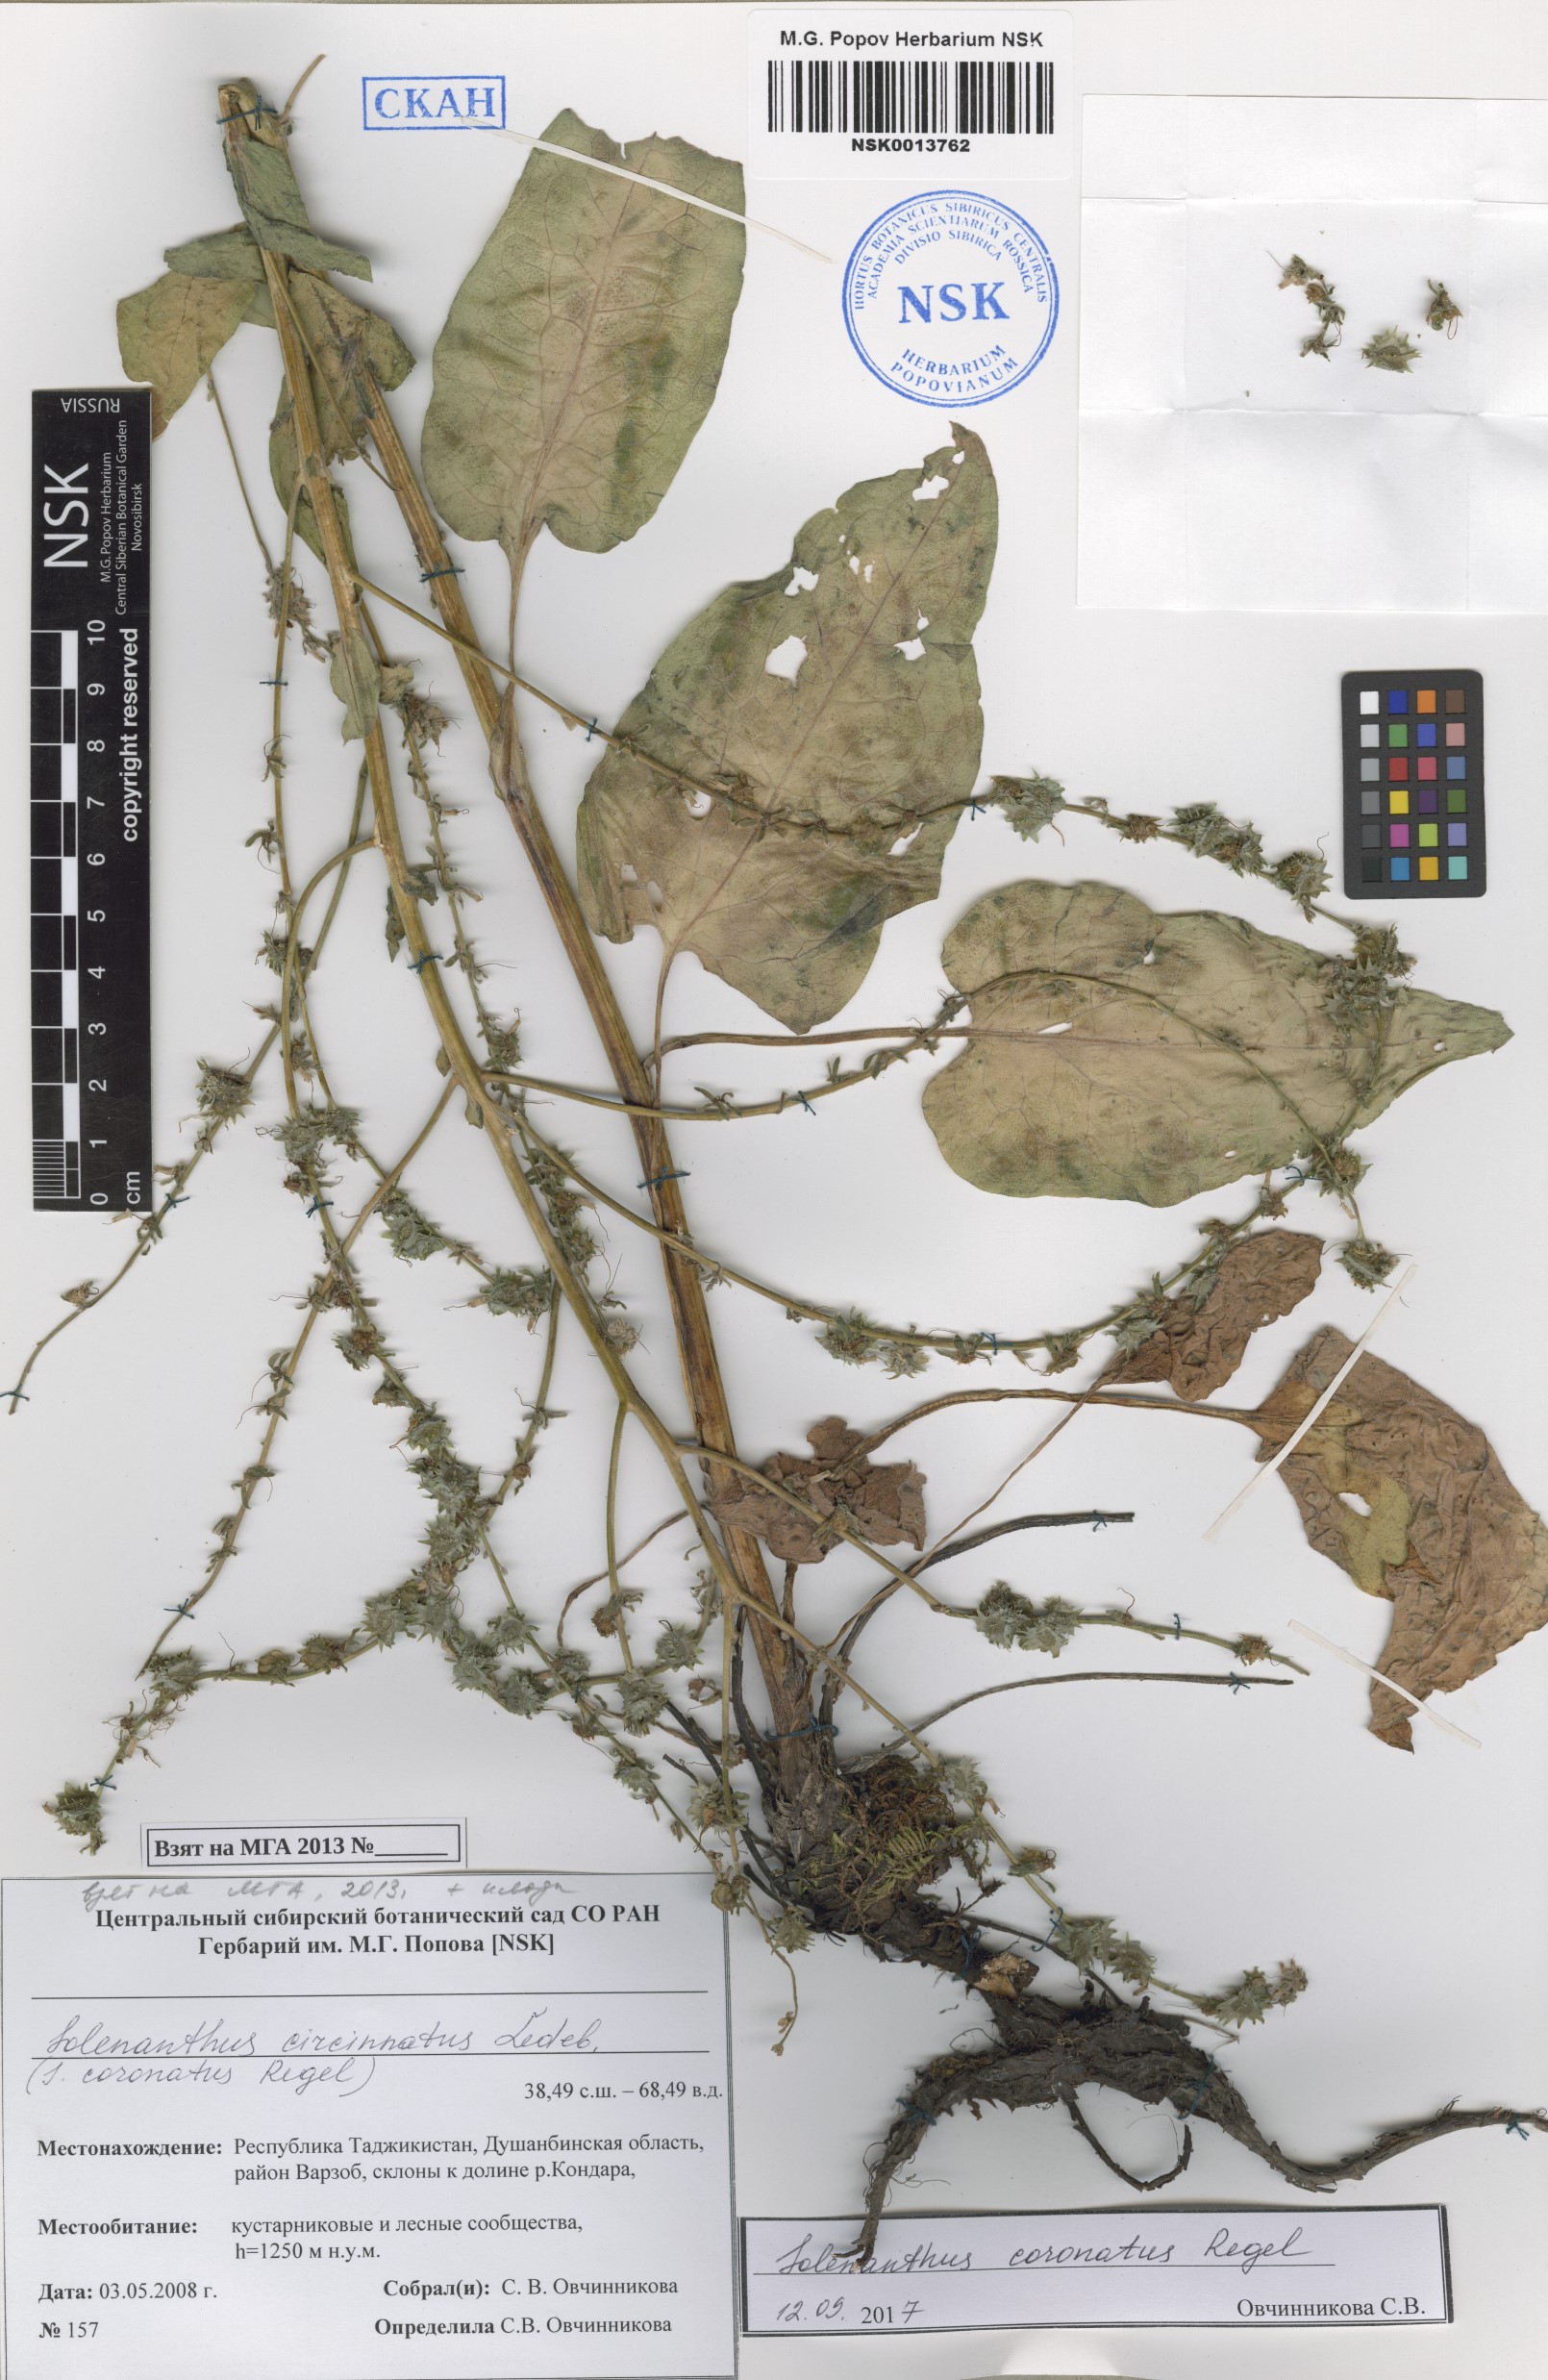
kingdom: Plantae
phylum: Tracheophyta
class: Magnoliopsida
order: Boraginales
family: Boraginaceae
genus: Solenanthus
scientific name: Solenanthus circinnatus
